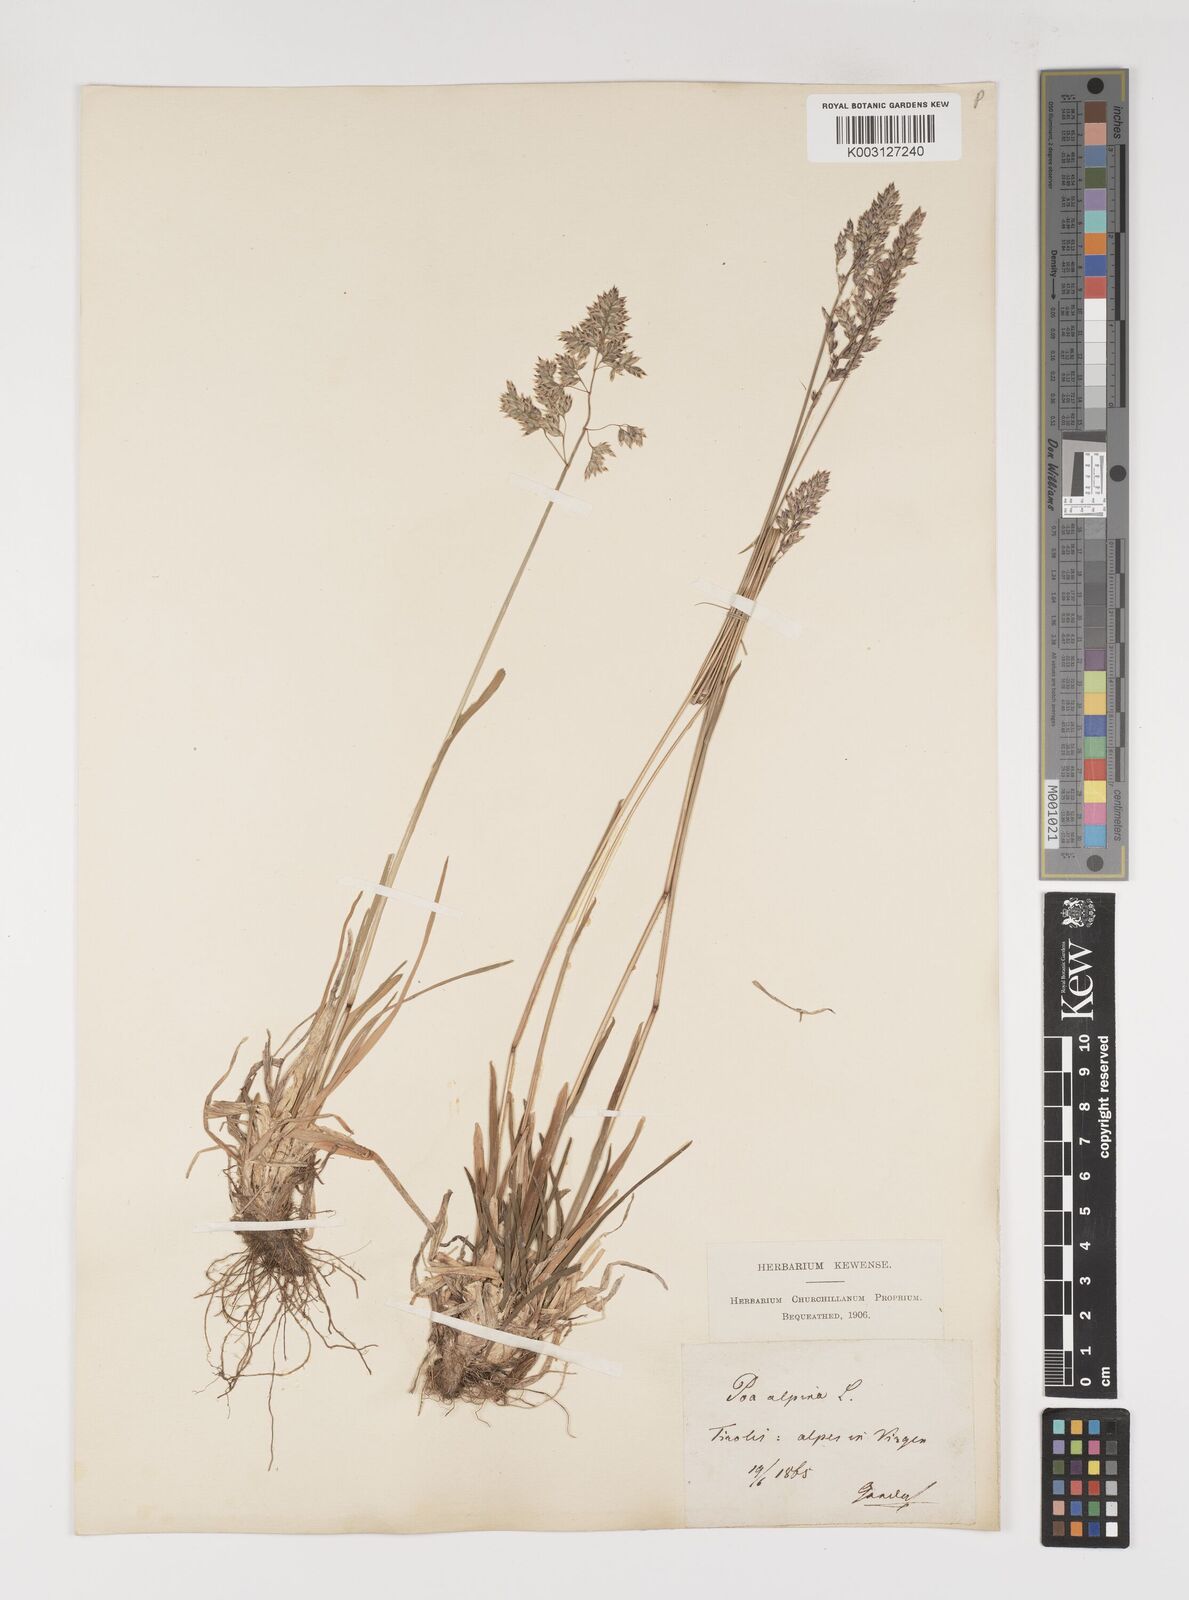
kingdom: Plantae
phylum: Tracheophyta
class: Liliopsida
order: Poales
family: Poaceae
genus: Poa
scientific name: Poa alpina
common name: Alpine bluegrass
